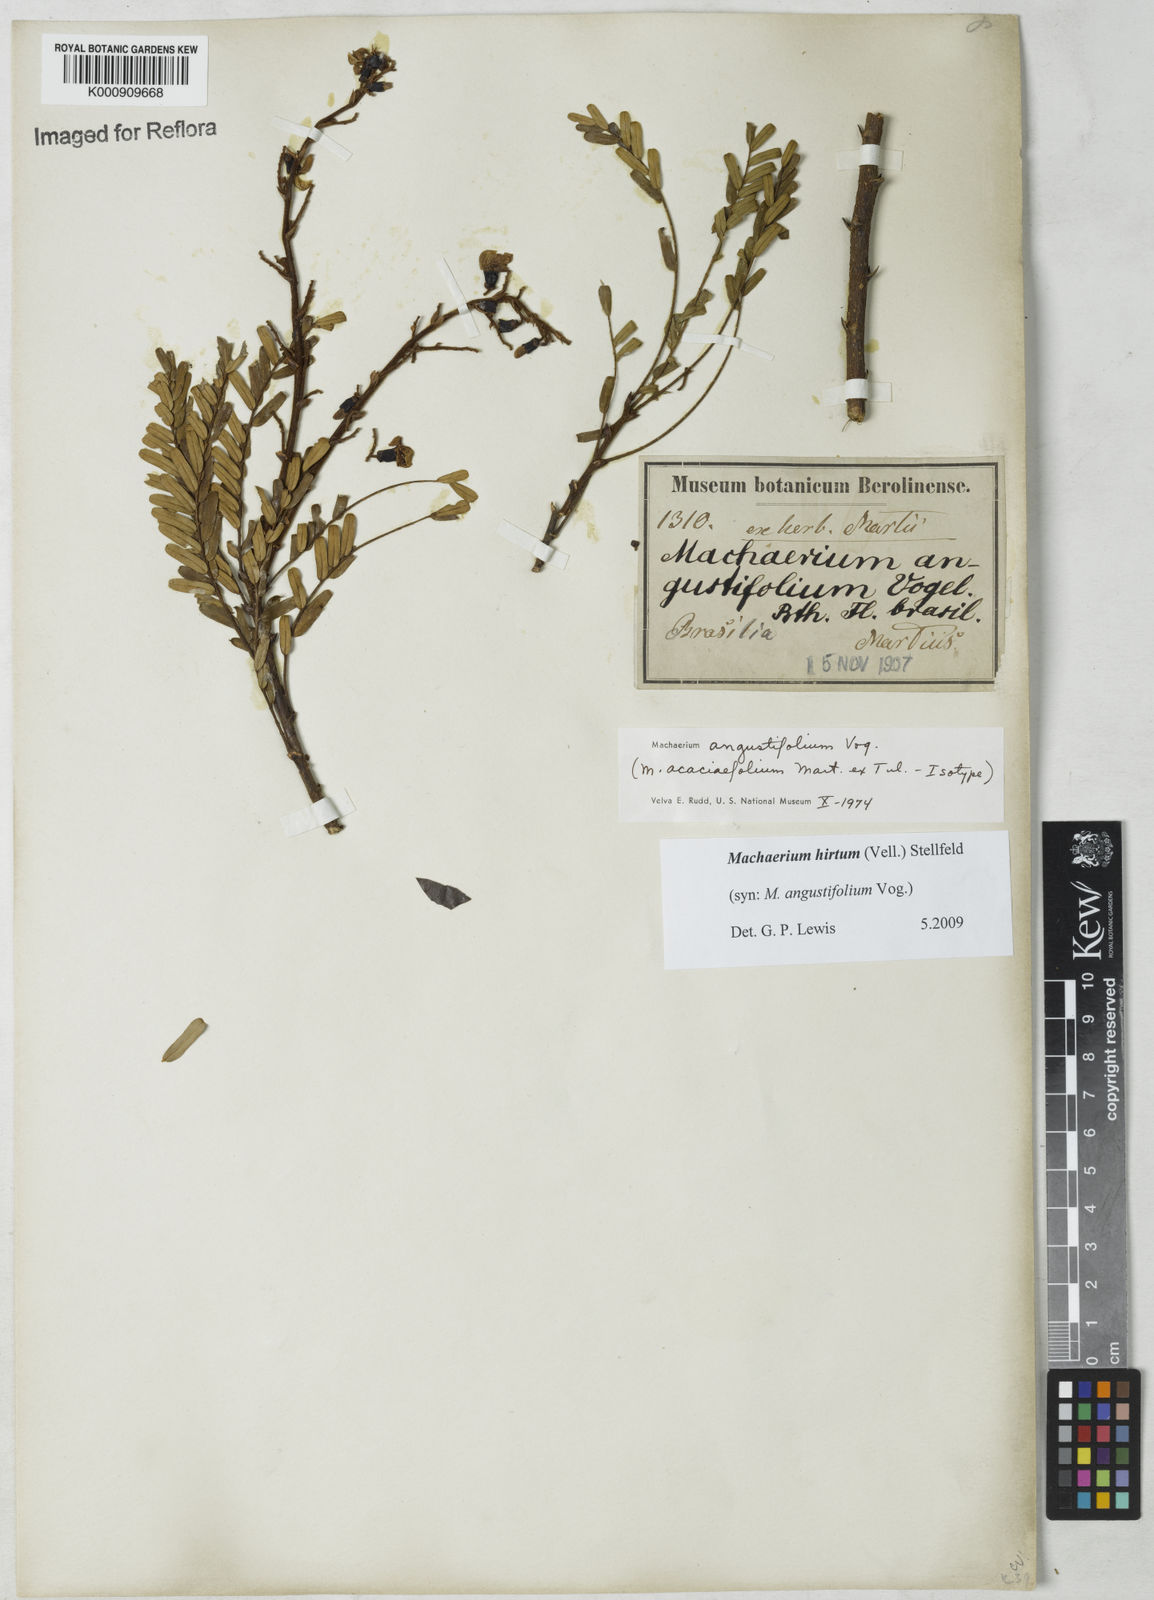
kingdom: Plantae
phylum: Tracheophyta
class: Magnoliopsida
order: Fabales
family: Fabaceae
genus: Machaerium
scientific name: Machaerium hirtum
